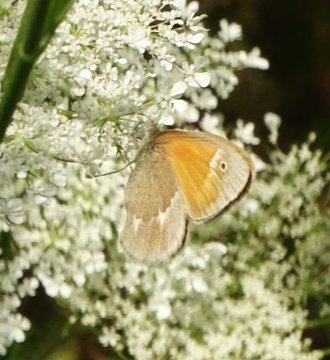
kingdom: Animalia
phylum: Arthropoda
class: Insecta
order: Lepidoptera
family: Nymphalidae
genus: Coenonympha
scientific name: Coenonympha tullia
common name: Large Heath
